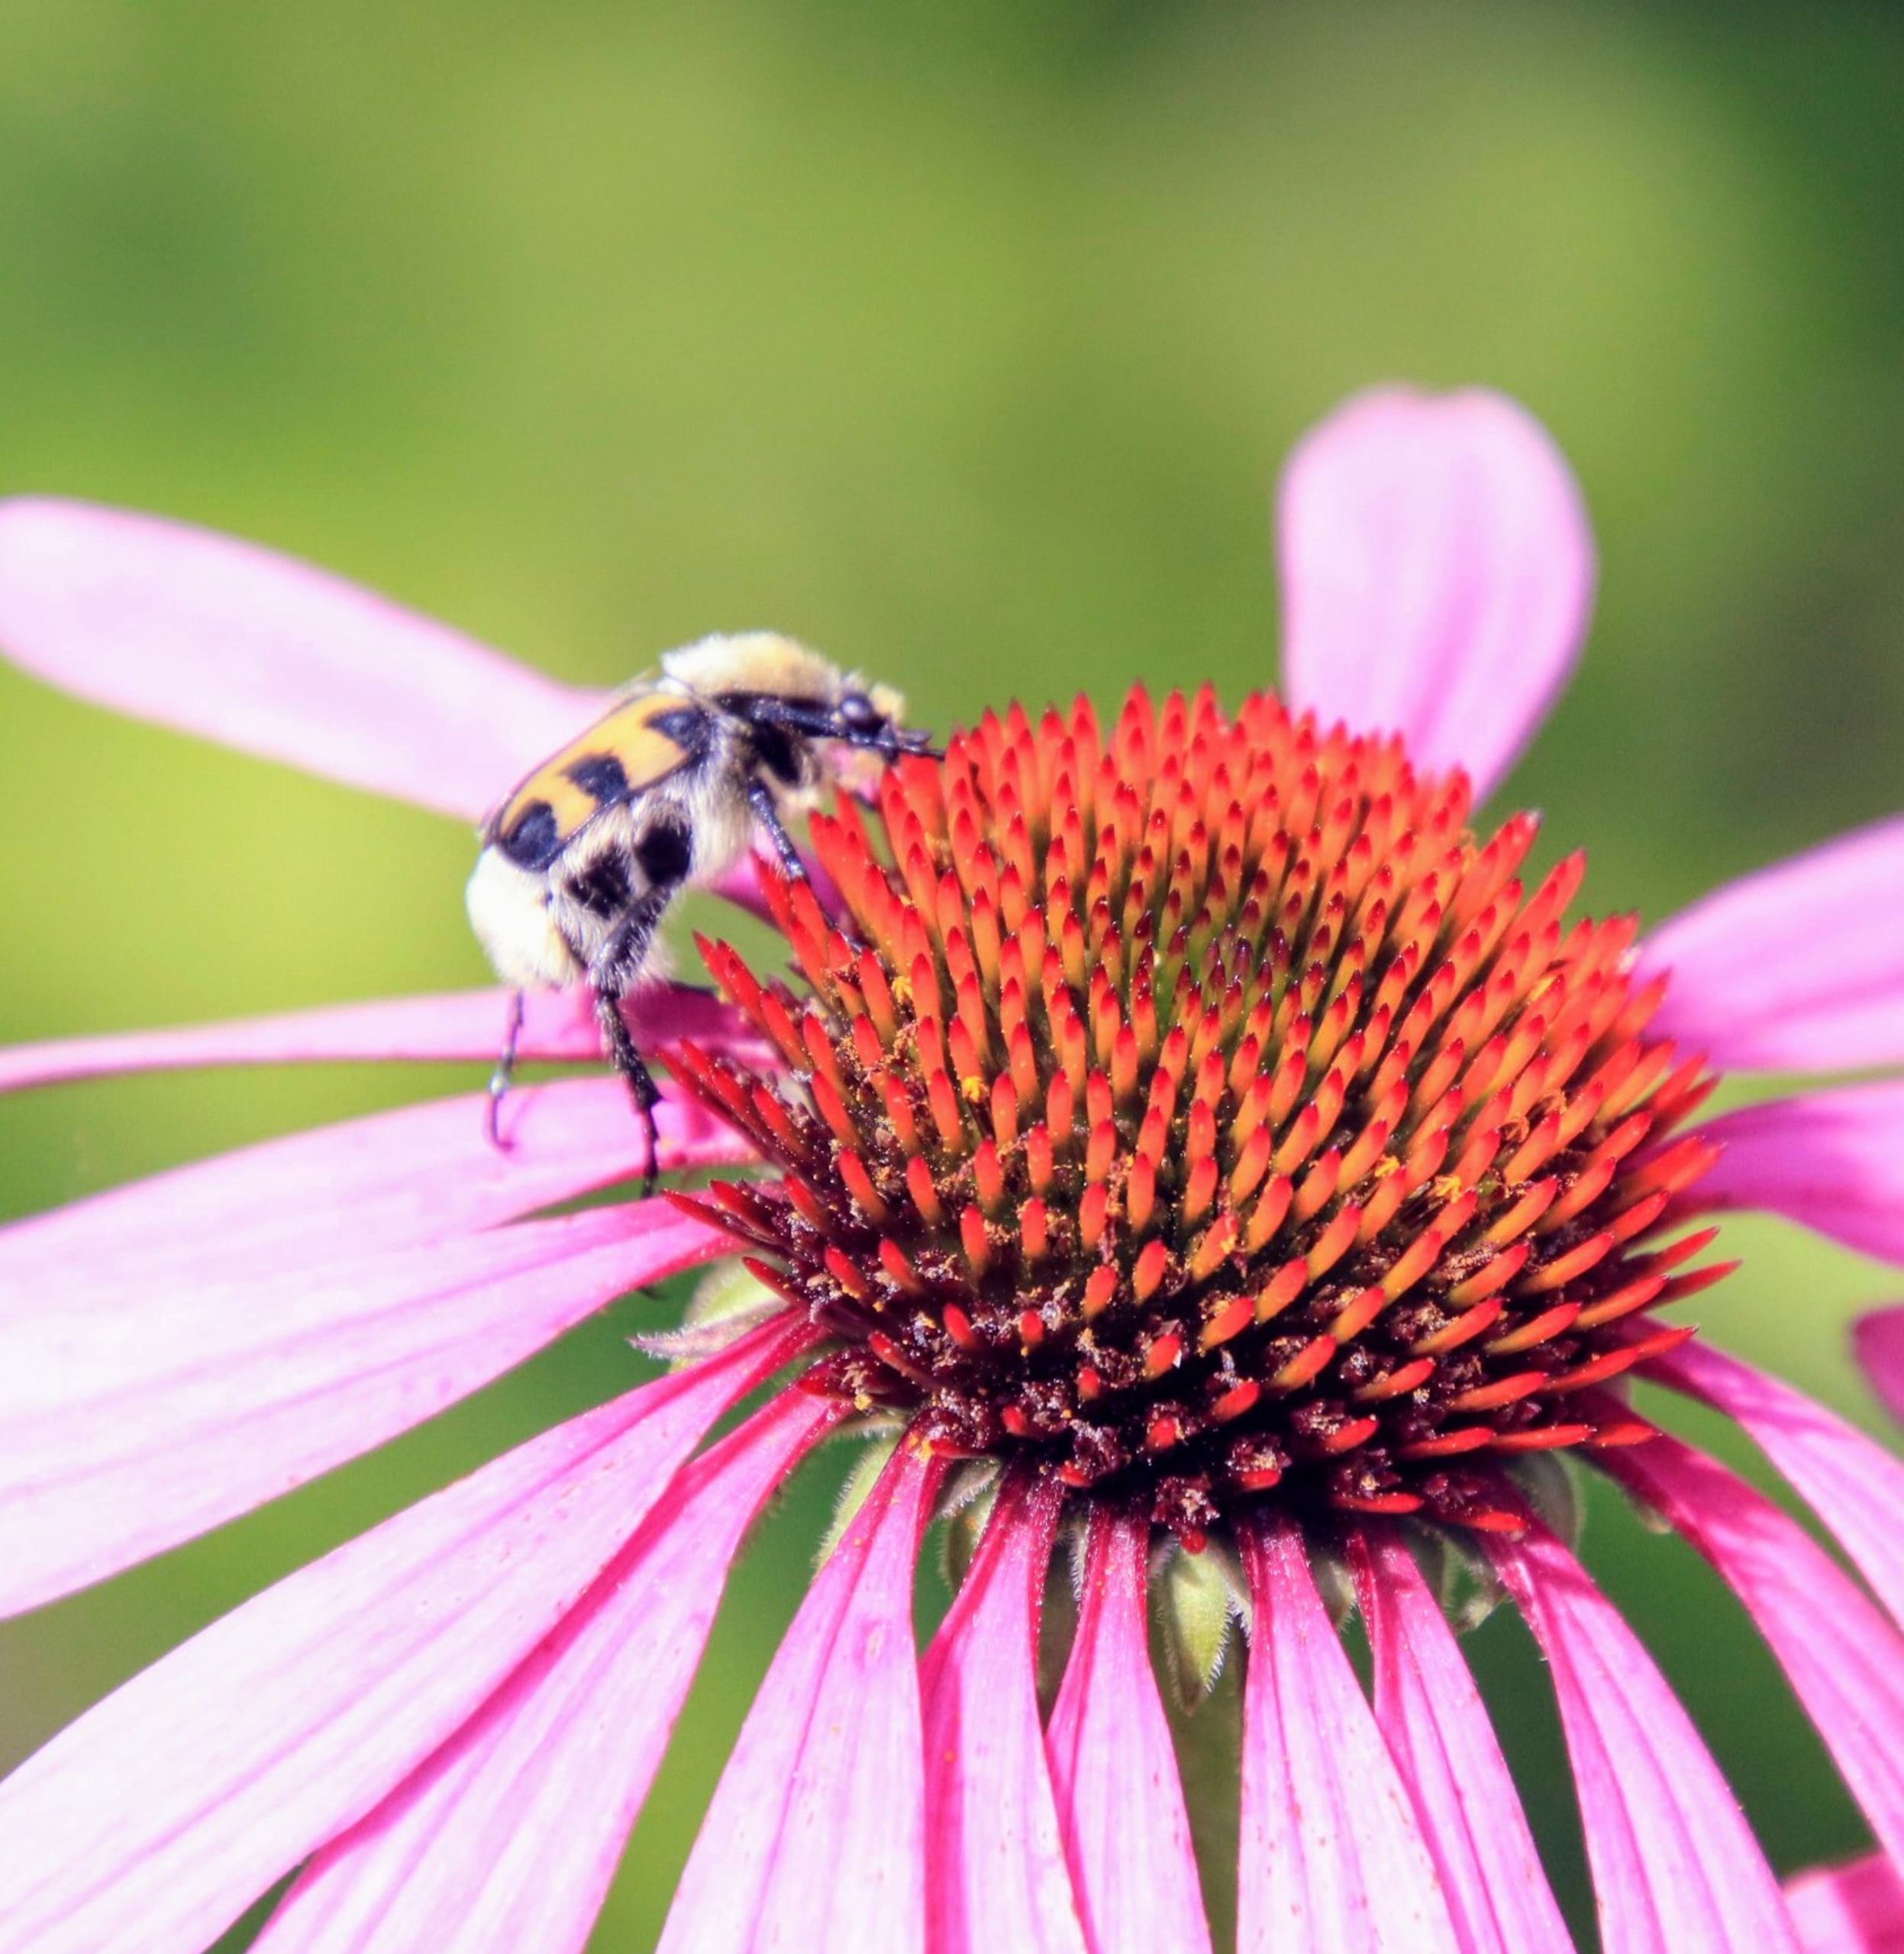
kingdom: Animalia
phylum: Arthropoda
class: Insecta
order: Coleoptera
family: Scarabaeidae
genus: Trichius
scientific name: Trichius gallicus
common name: Lille humlebille
